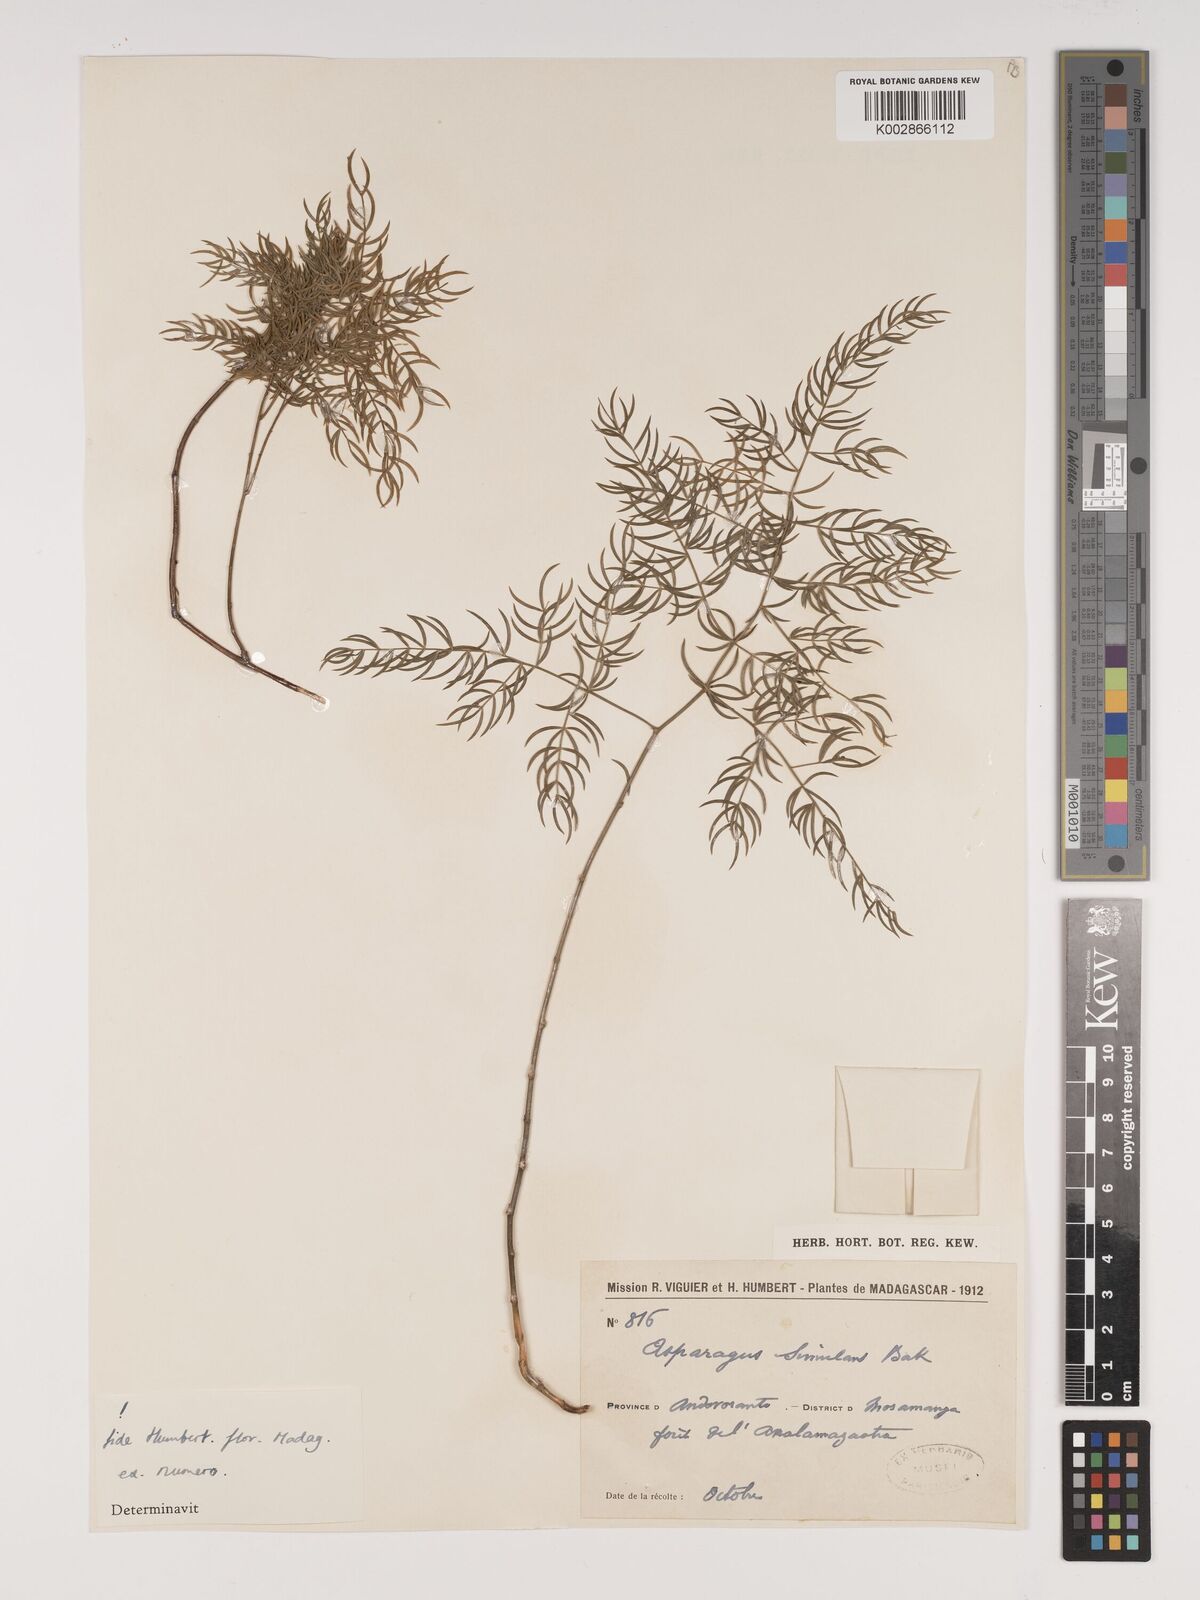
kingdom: Plantae
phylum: Tracheophyta
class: Liliopsida
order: Asparagales
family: Asparagaceae
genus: Asparagus
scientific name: Asparagus simulans
